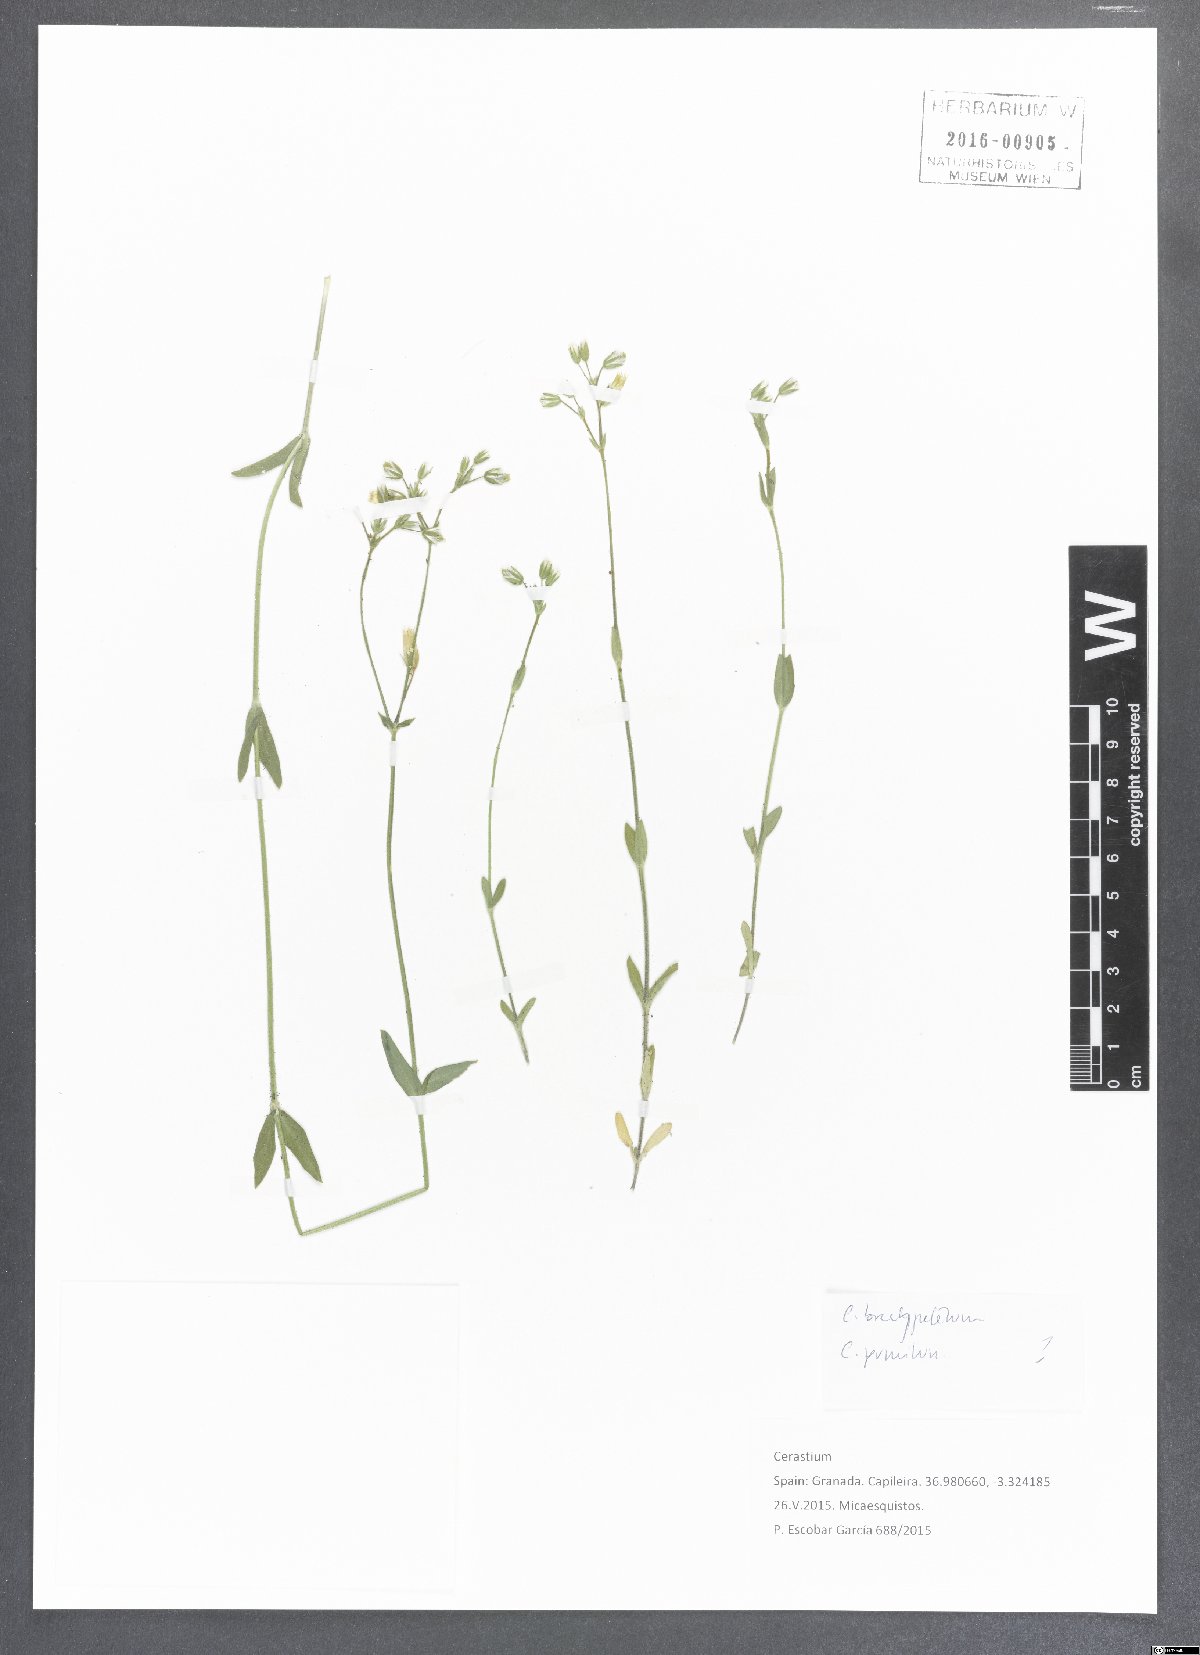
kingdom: Plantae
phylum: Tracheophyta
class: Magnoliopsida
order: Caryophyllales
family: Caryophyllaceae
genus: Cerastium
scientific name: Cerastium
